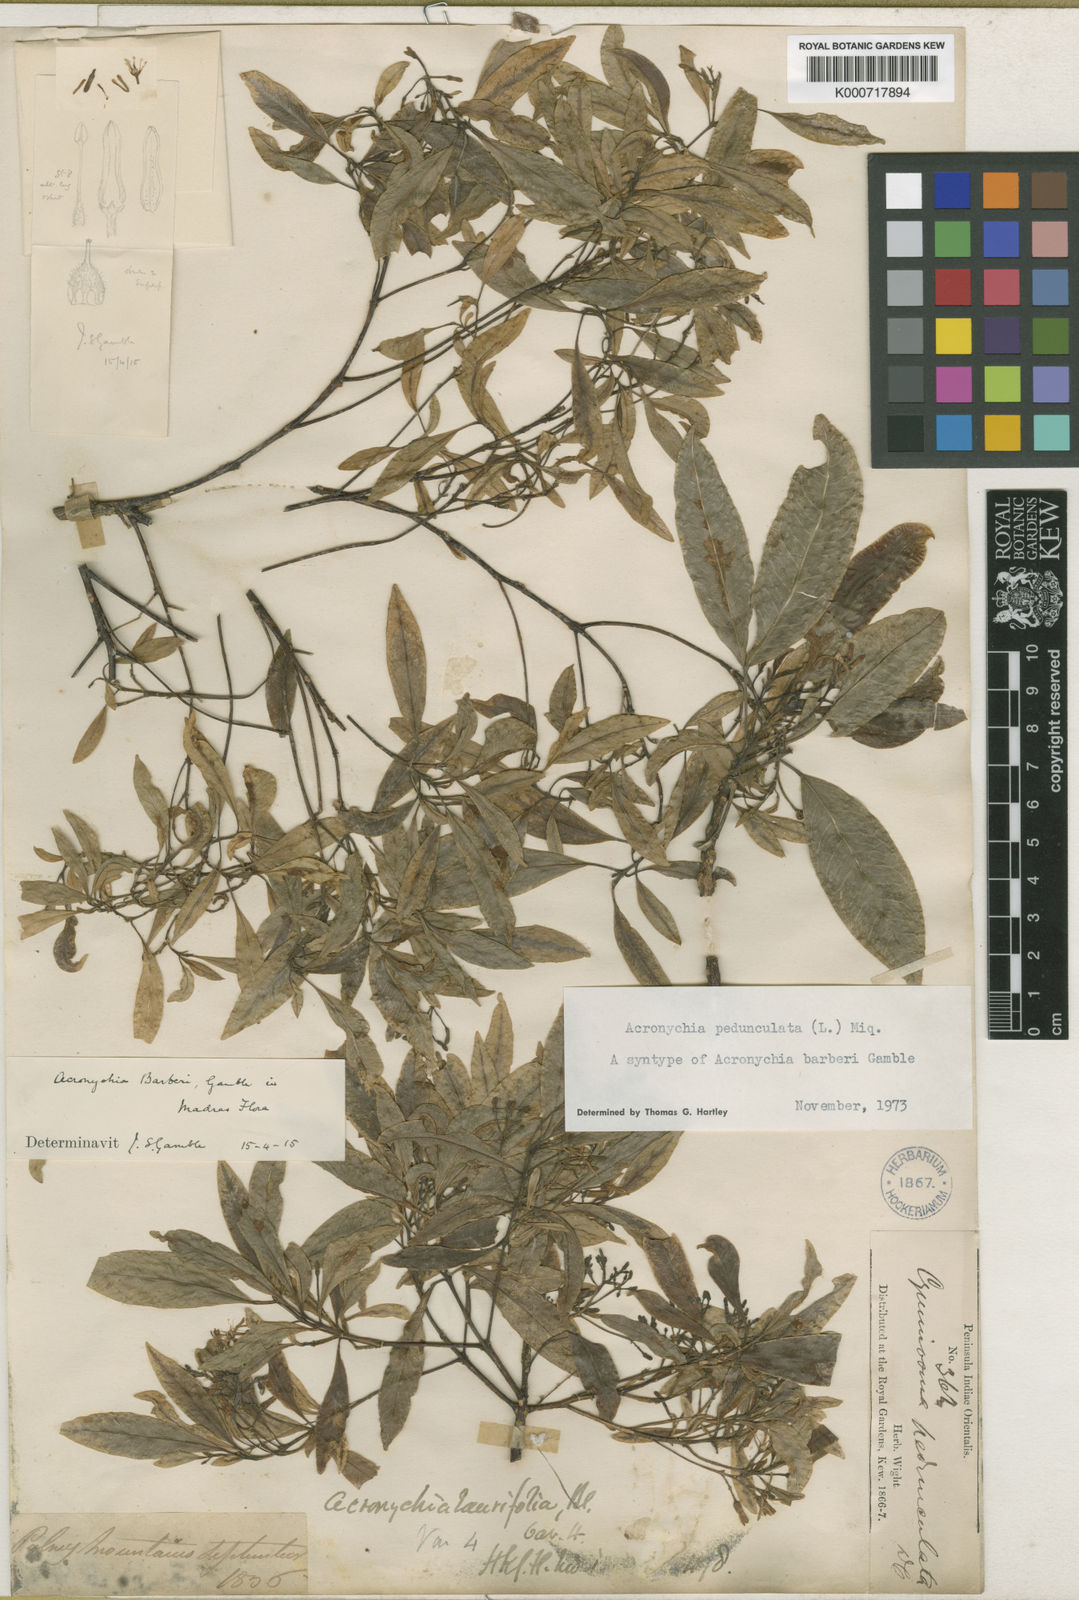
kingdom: Plantae
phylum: Tracheophyta
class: Magnoliopsida
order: Sapindales
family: Rutaceae
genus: Acronychia
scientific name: Acronychia pedunculata
